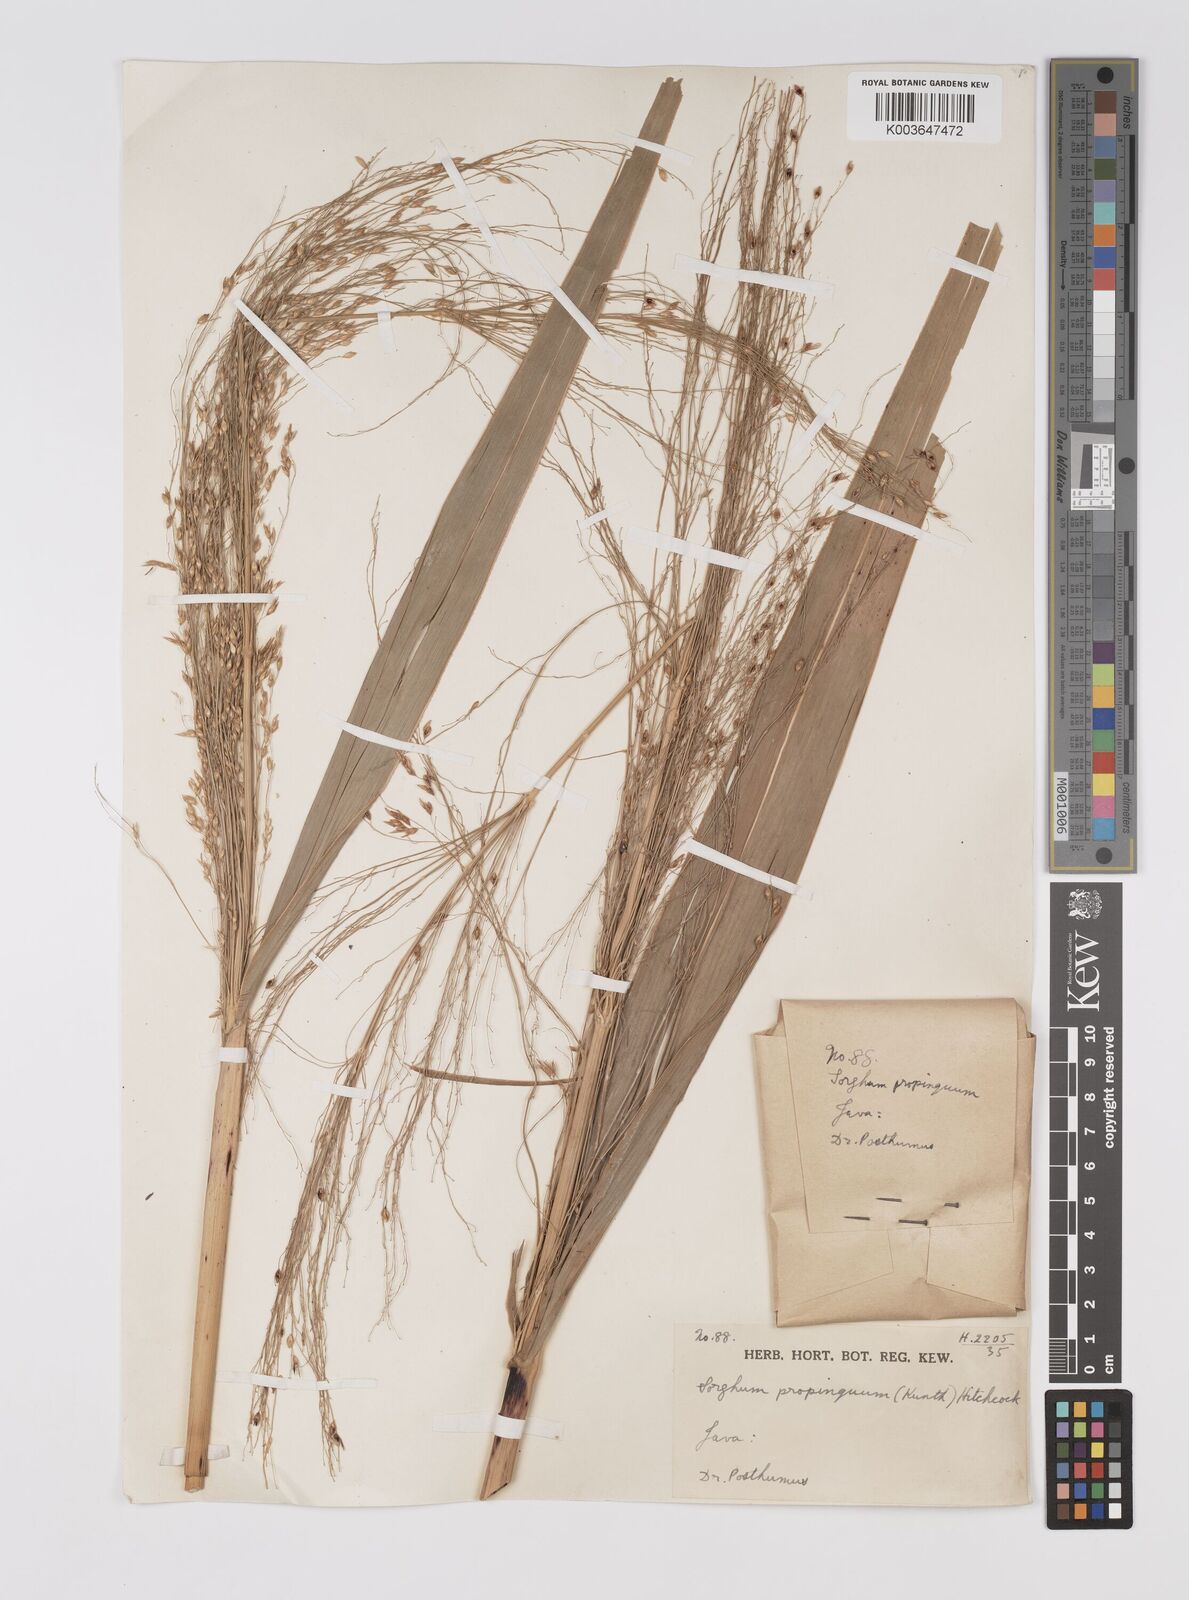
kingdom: Plantae
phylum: Tracheophyta
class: Liliopsida
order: Poales
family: Poaceae
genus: Sorghum
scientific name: Sorghum propinquum
